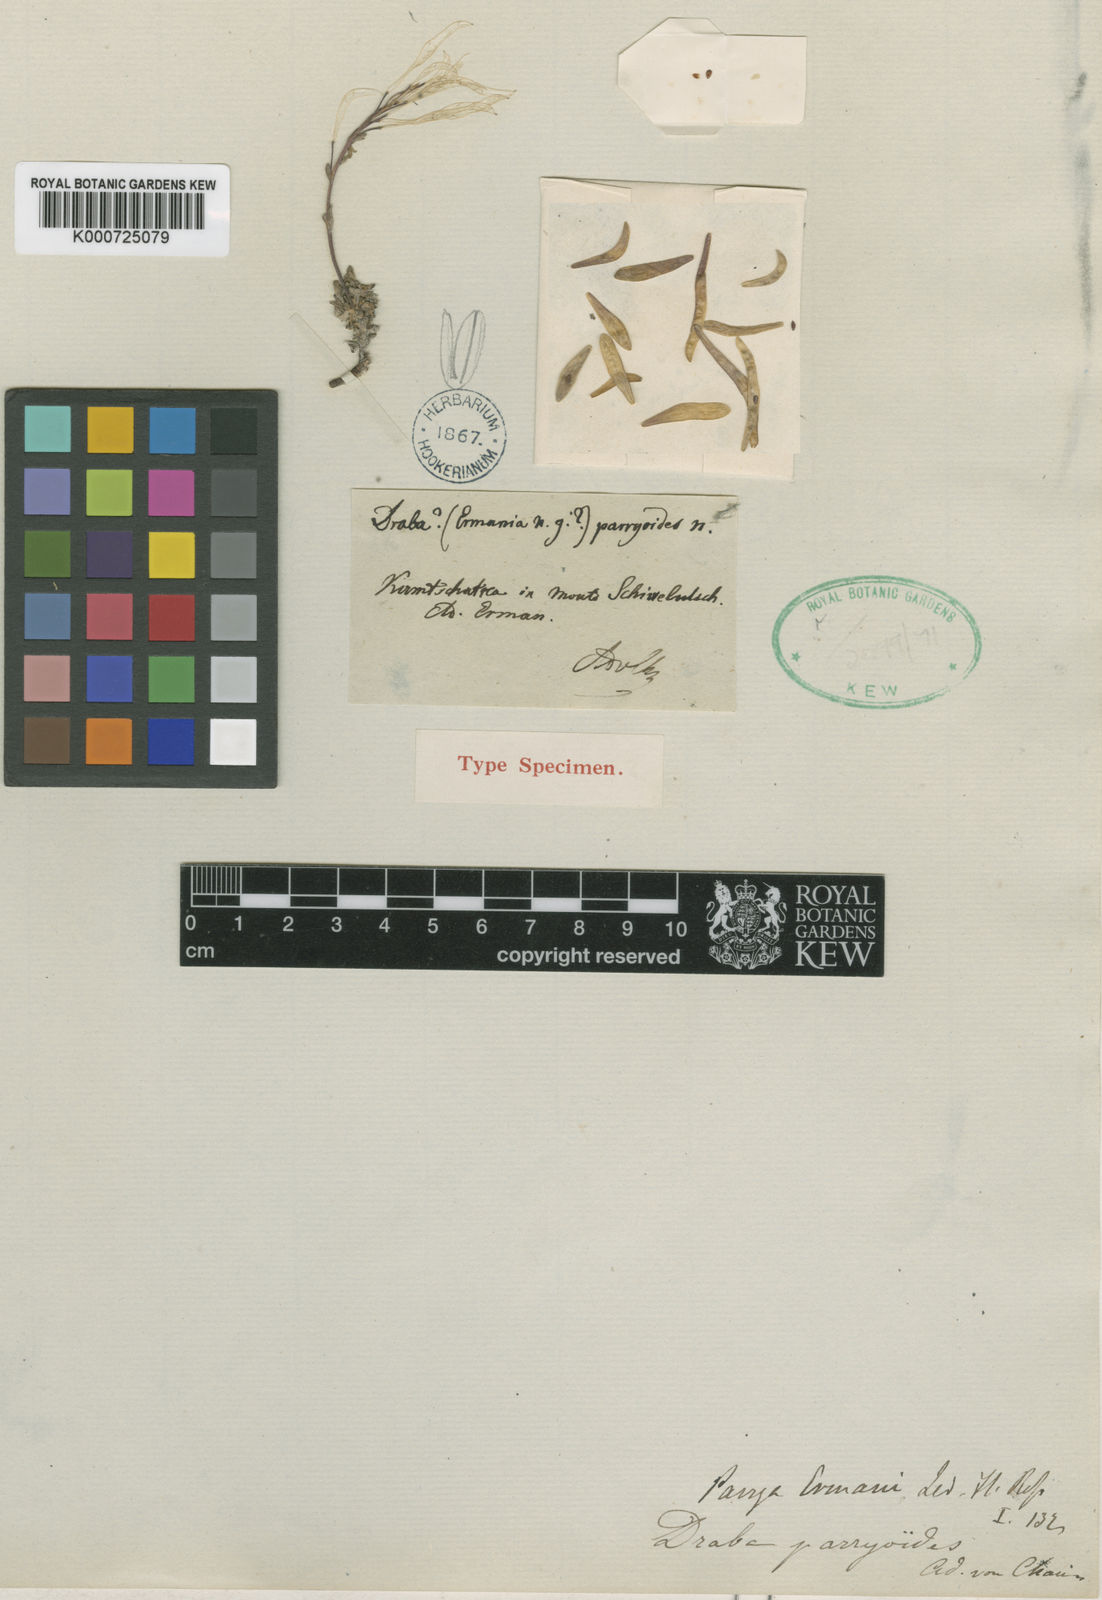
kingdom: Plantae
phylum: Tracheophyta
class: Magnoliopsida
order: Brassicales
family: Brassicaceae
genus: Smelowskia
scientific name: Smelowskia parryoides
